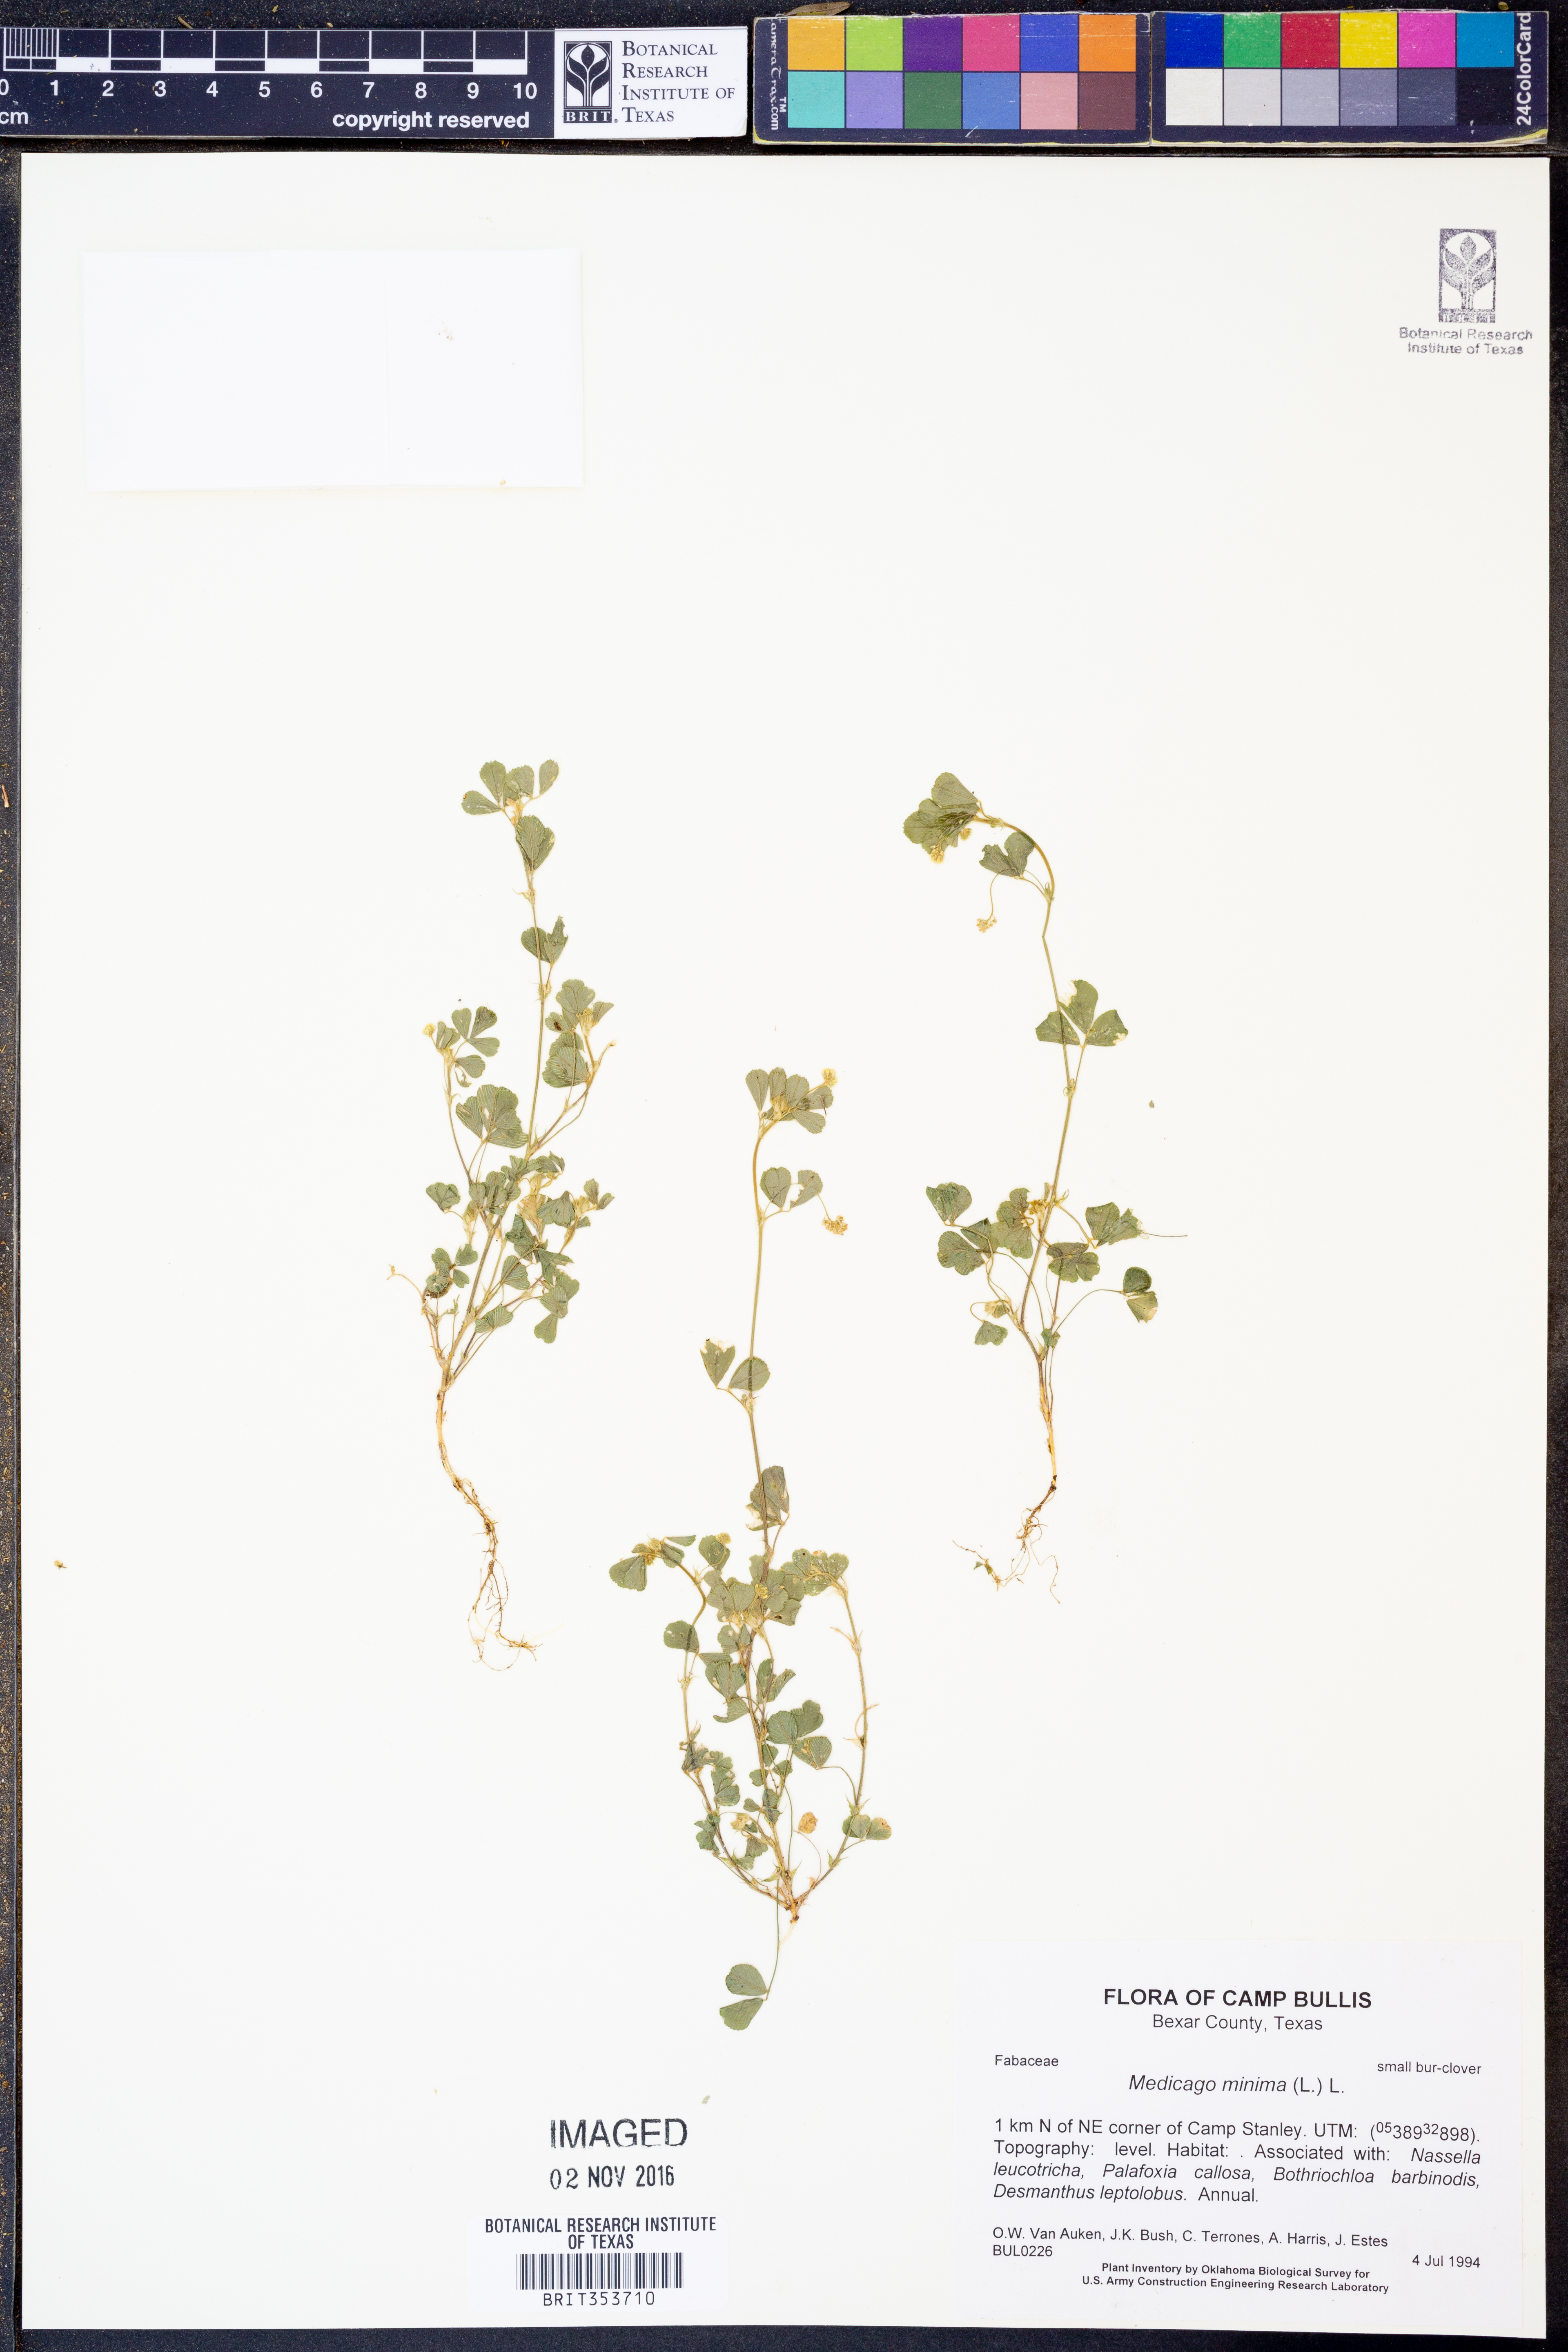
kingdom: Plantae
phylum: Tracheophyta
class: Magnoliopsida
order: Fabales
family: Fabaceae
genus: Medicago
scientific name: Medicago minima
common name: Little bur-clover
